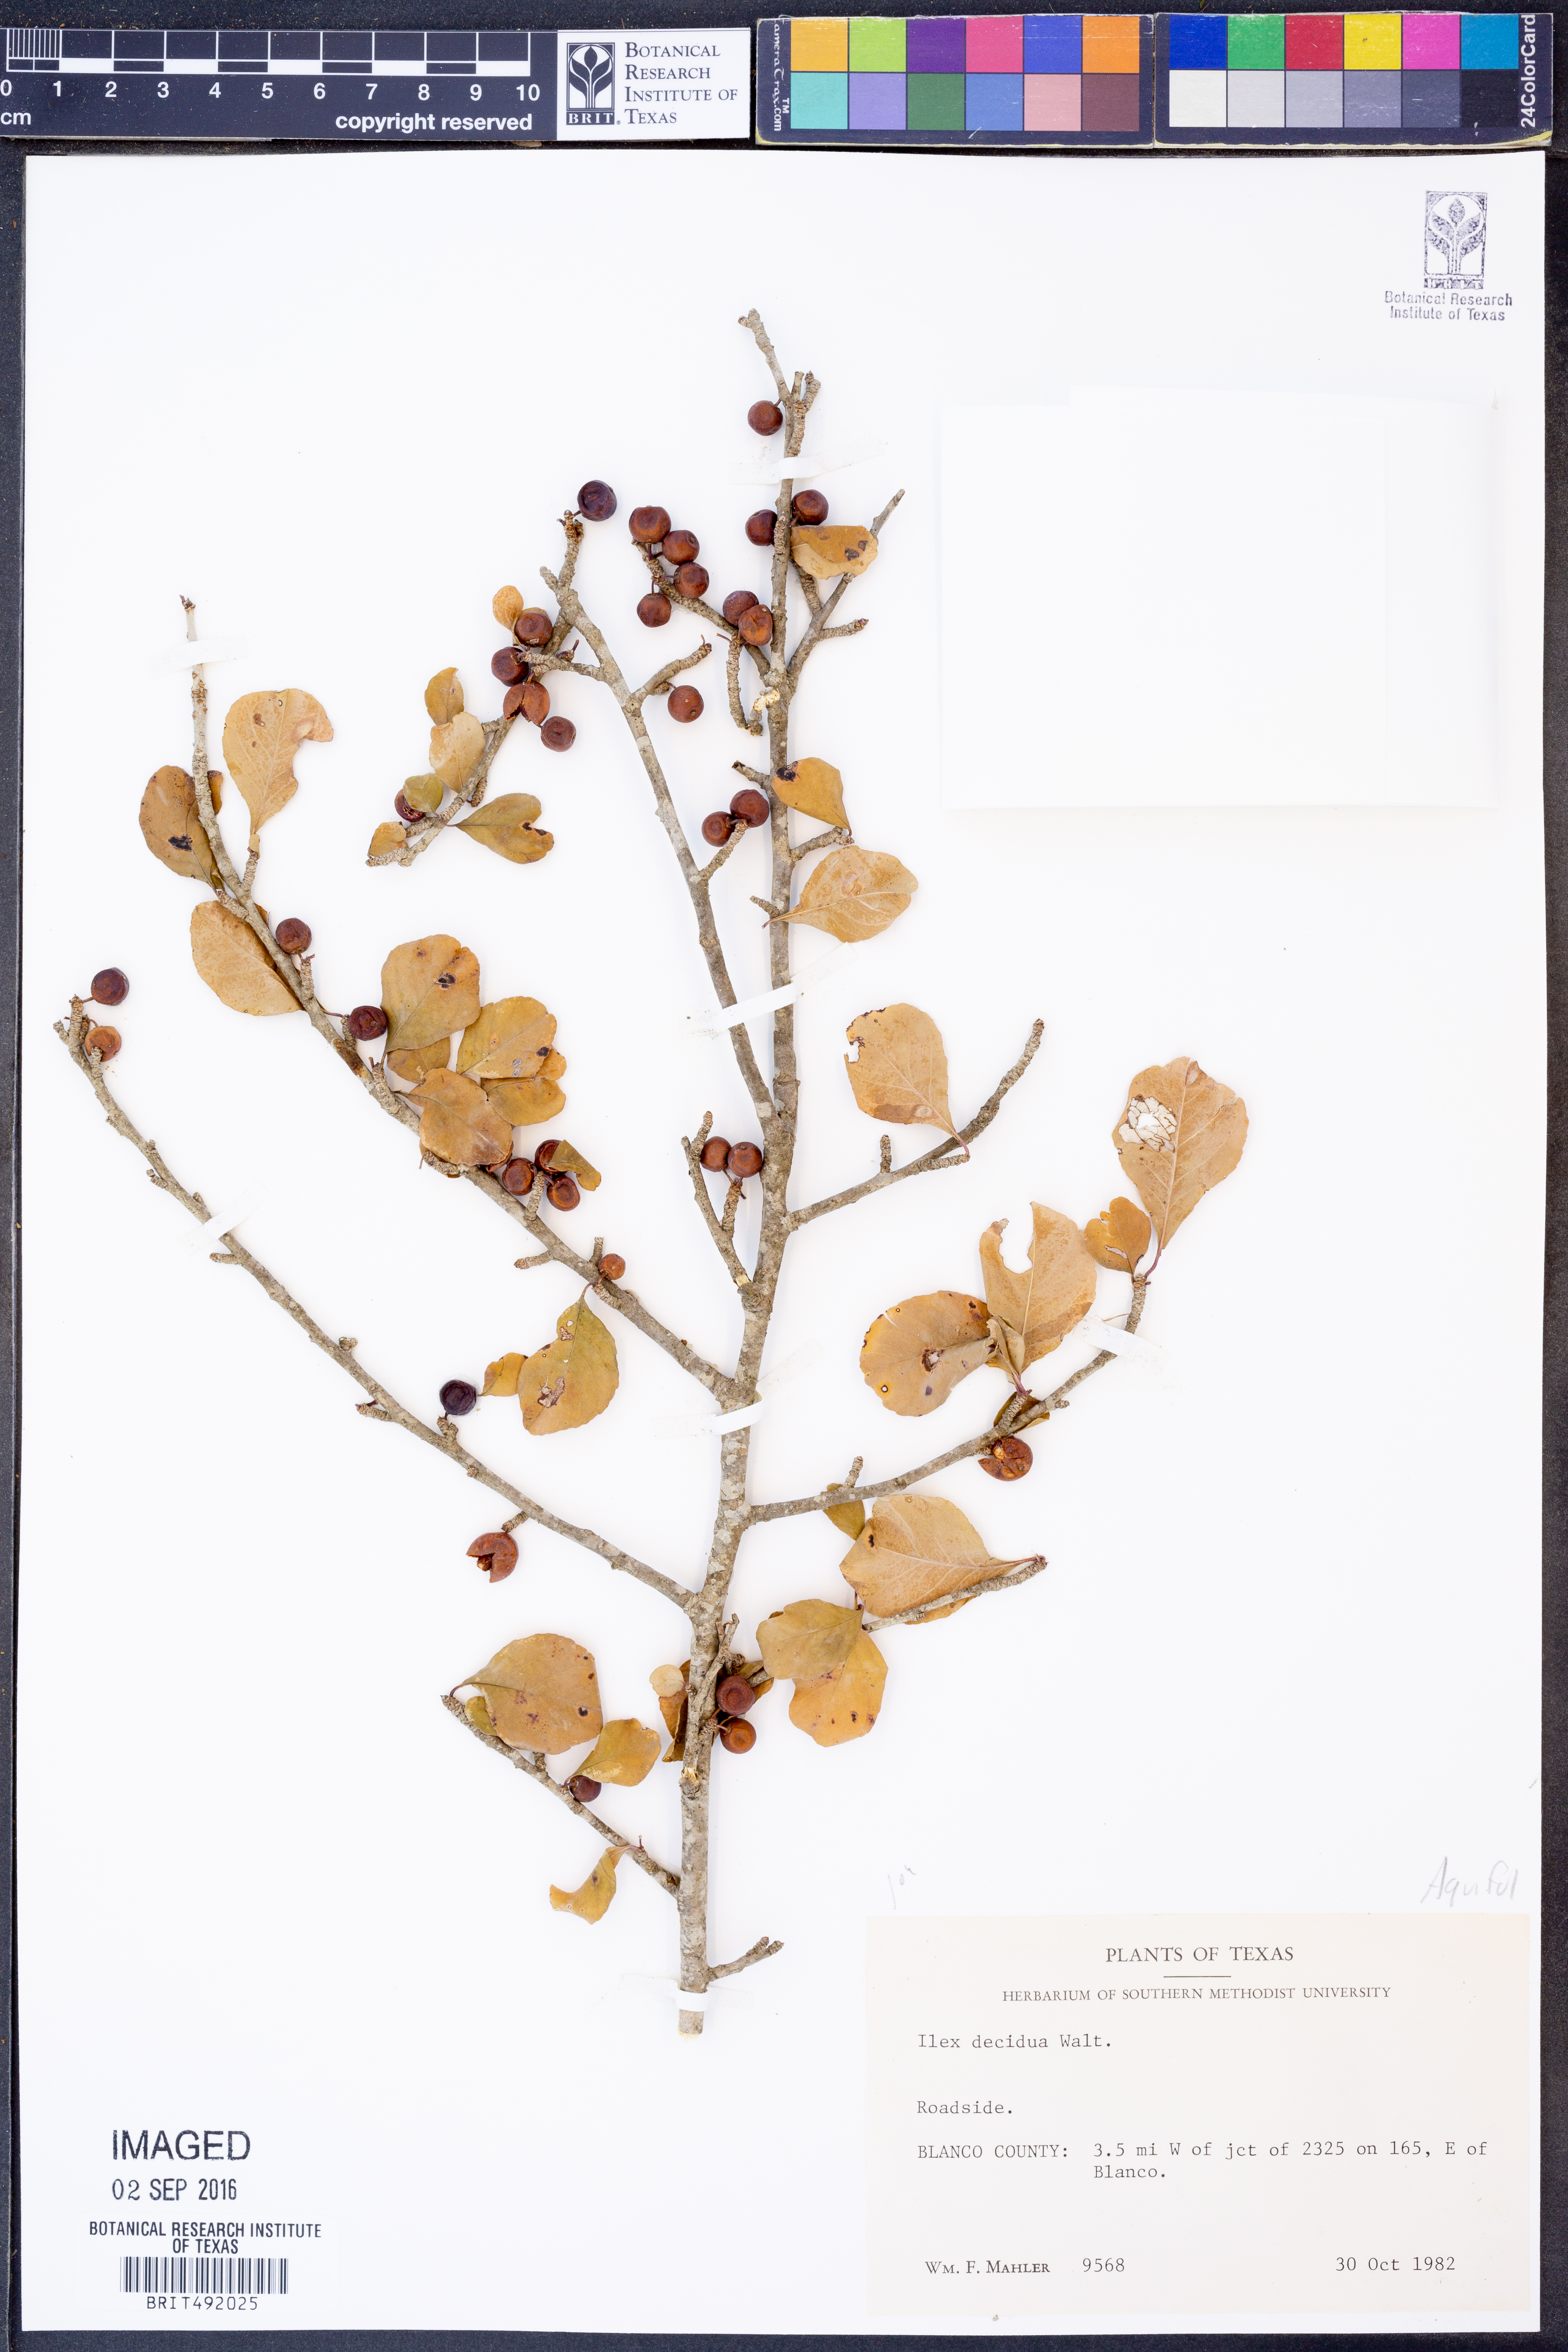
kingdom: Plantae
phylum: Tracheophyta
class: Magnoliopsida
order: Aquifoliales
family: Aquifoliaceae
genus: Ilex
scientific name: Ilex decidua
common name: Possum-haw
